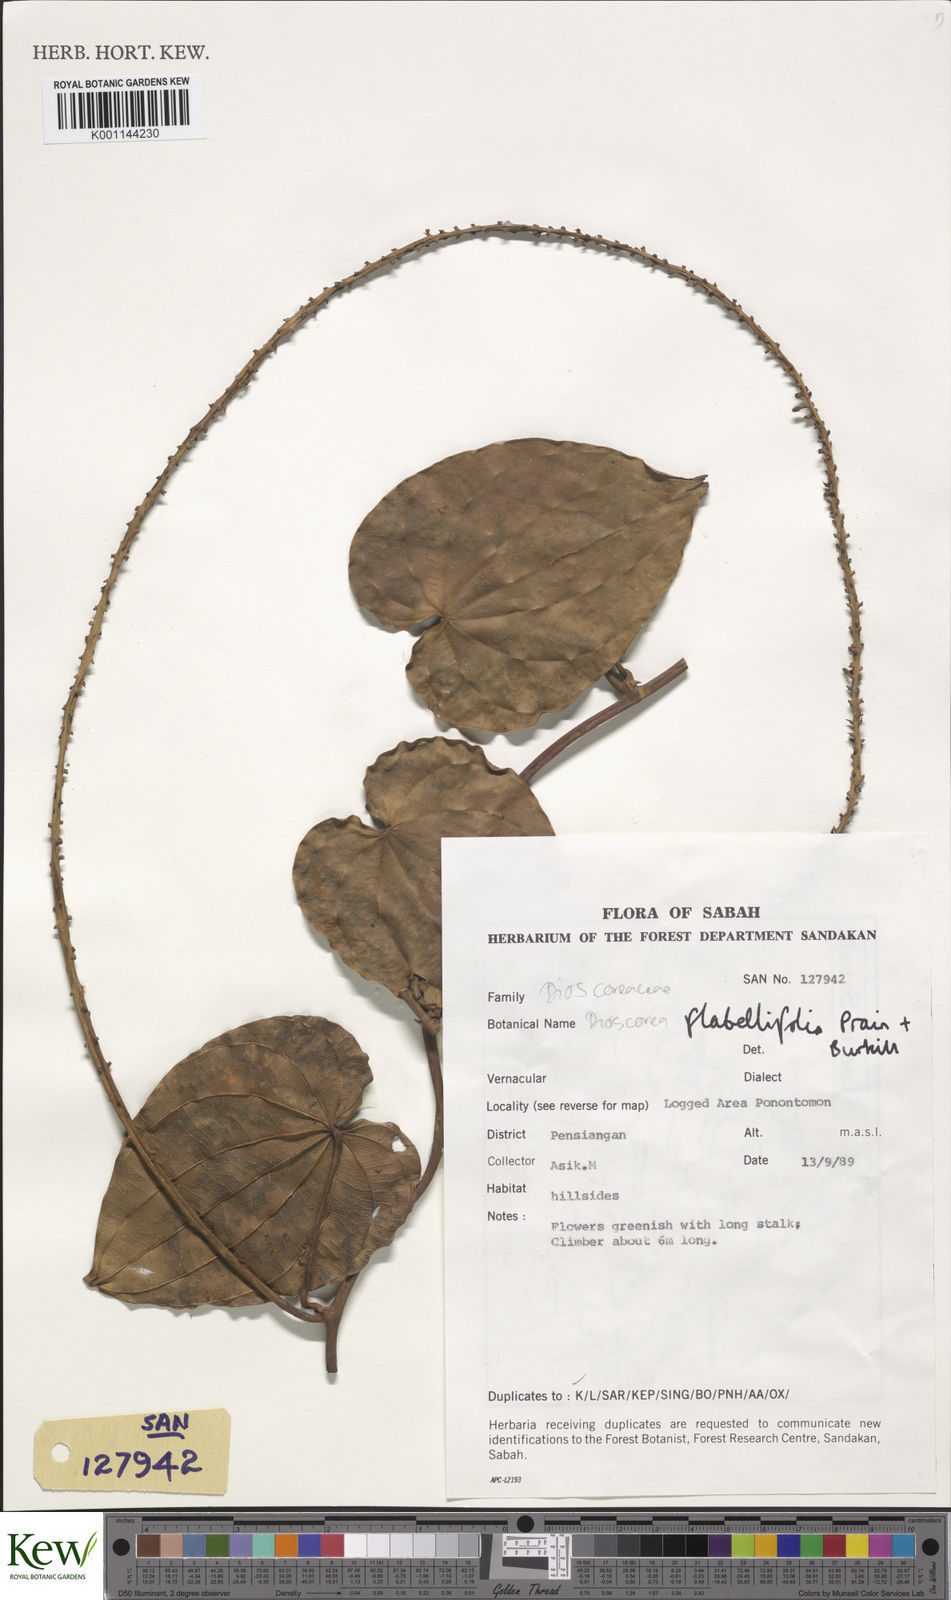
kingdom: Plantae
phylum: Tracheophyta
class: Liliopsida
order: Dioscoreales
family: Dioscoreaceae
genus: Dioscorea
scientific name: Dioscorea flabellifolia
